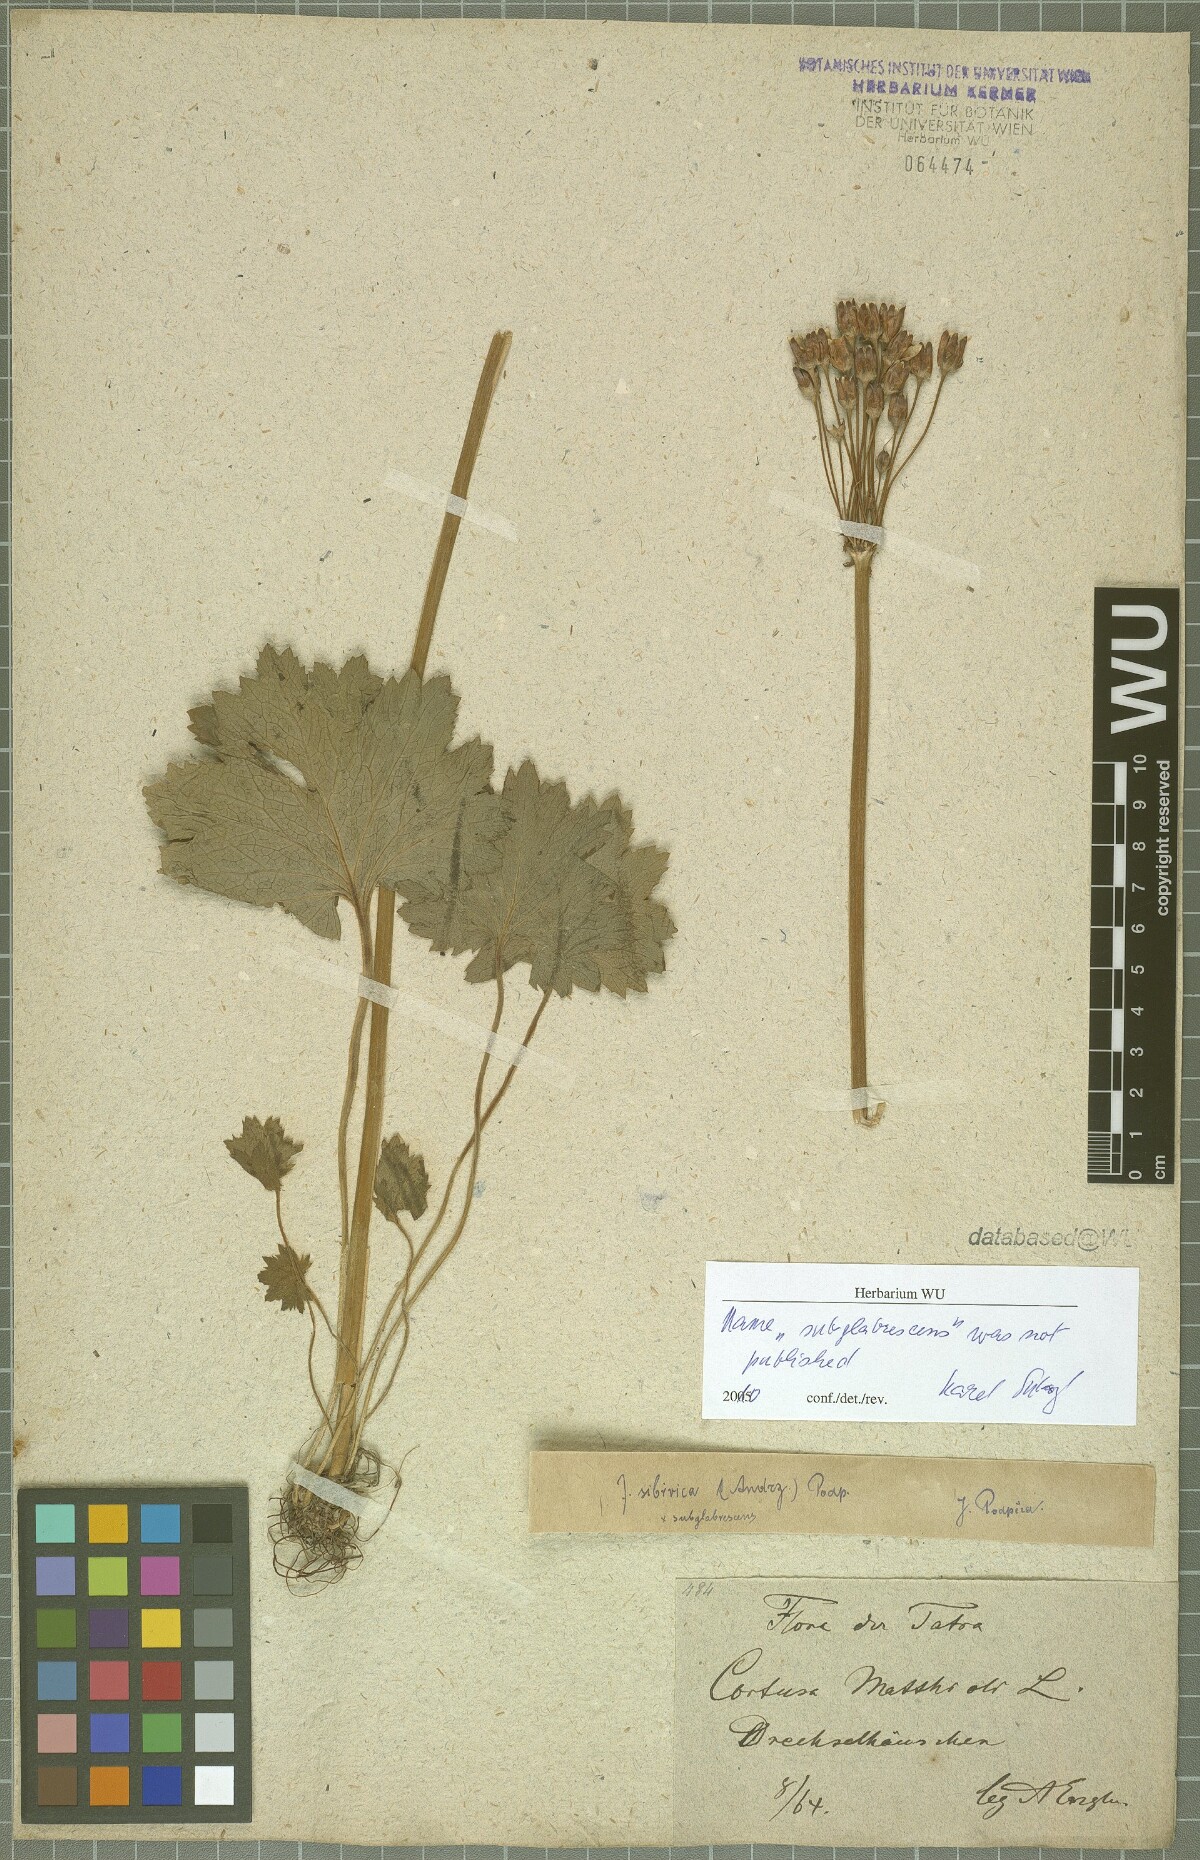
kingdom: Plantae
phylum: Tracheophyta
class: Magnoliopsida
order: Ericales
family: Primulaceae
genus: Primula
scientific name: Primula matthioli
